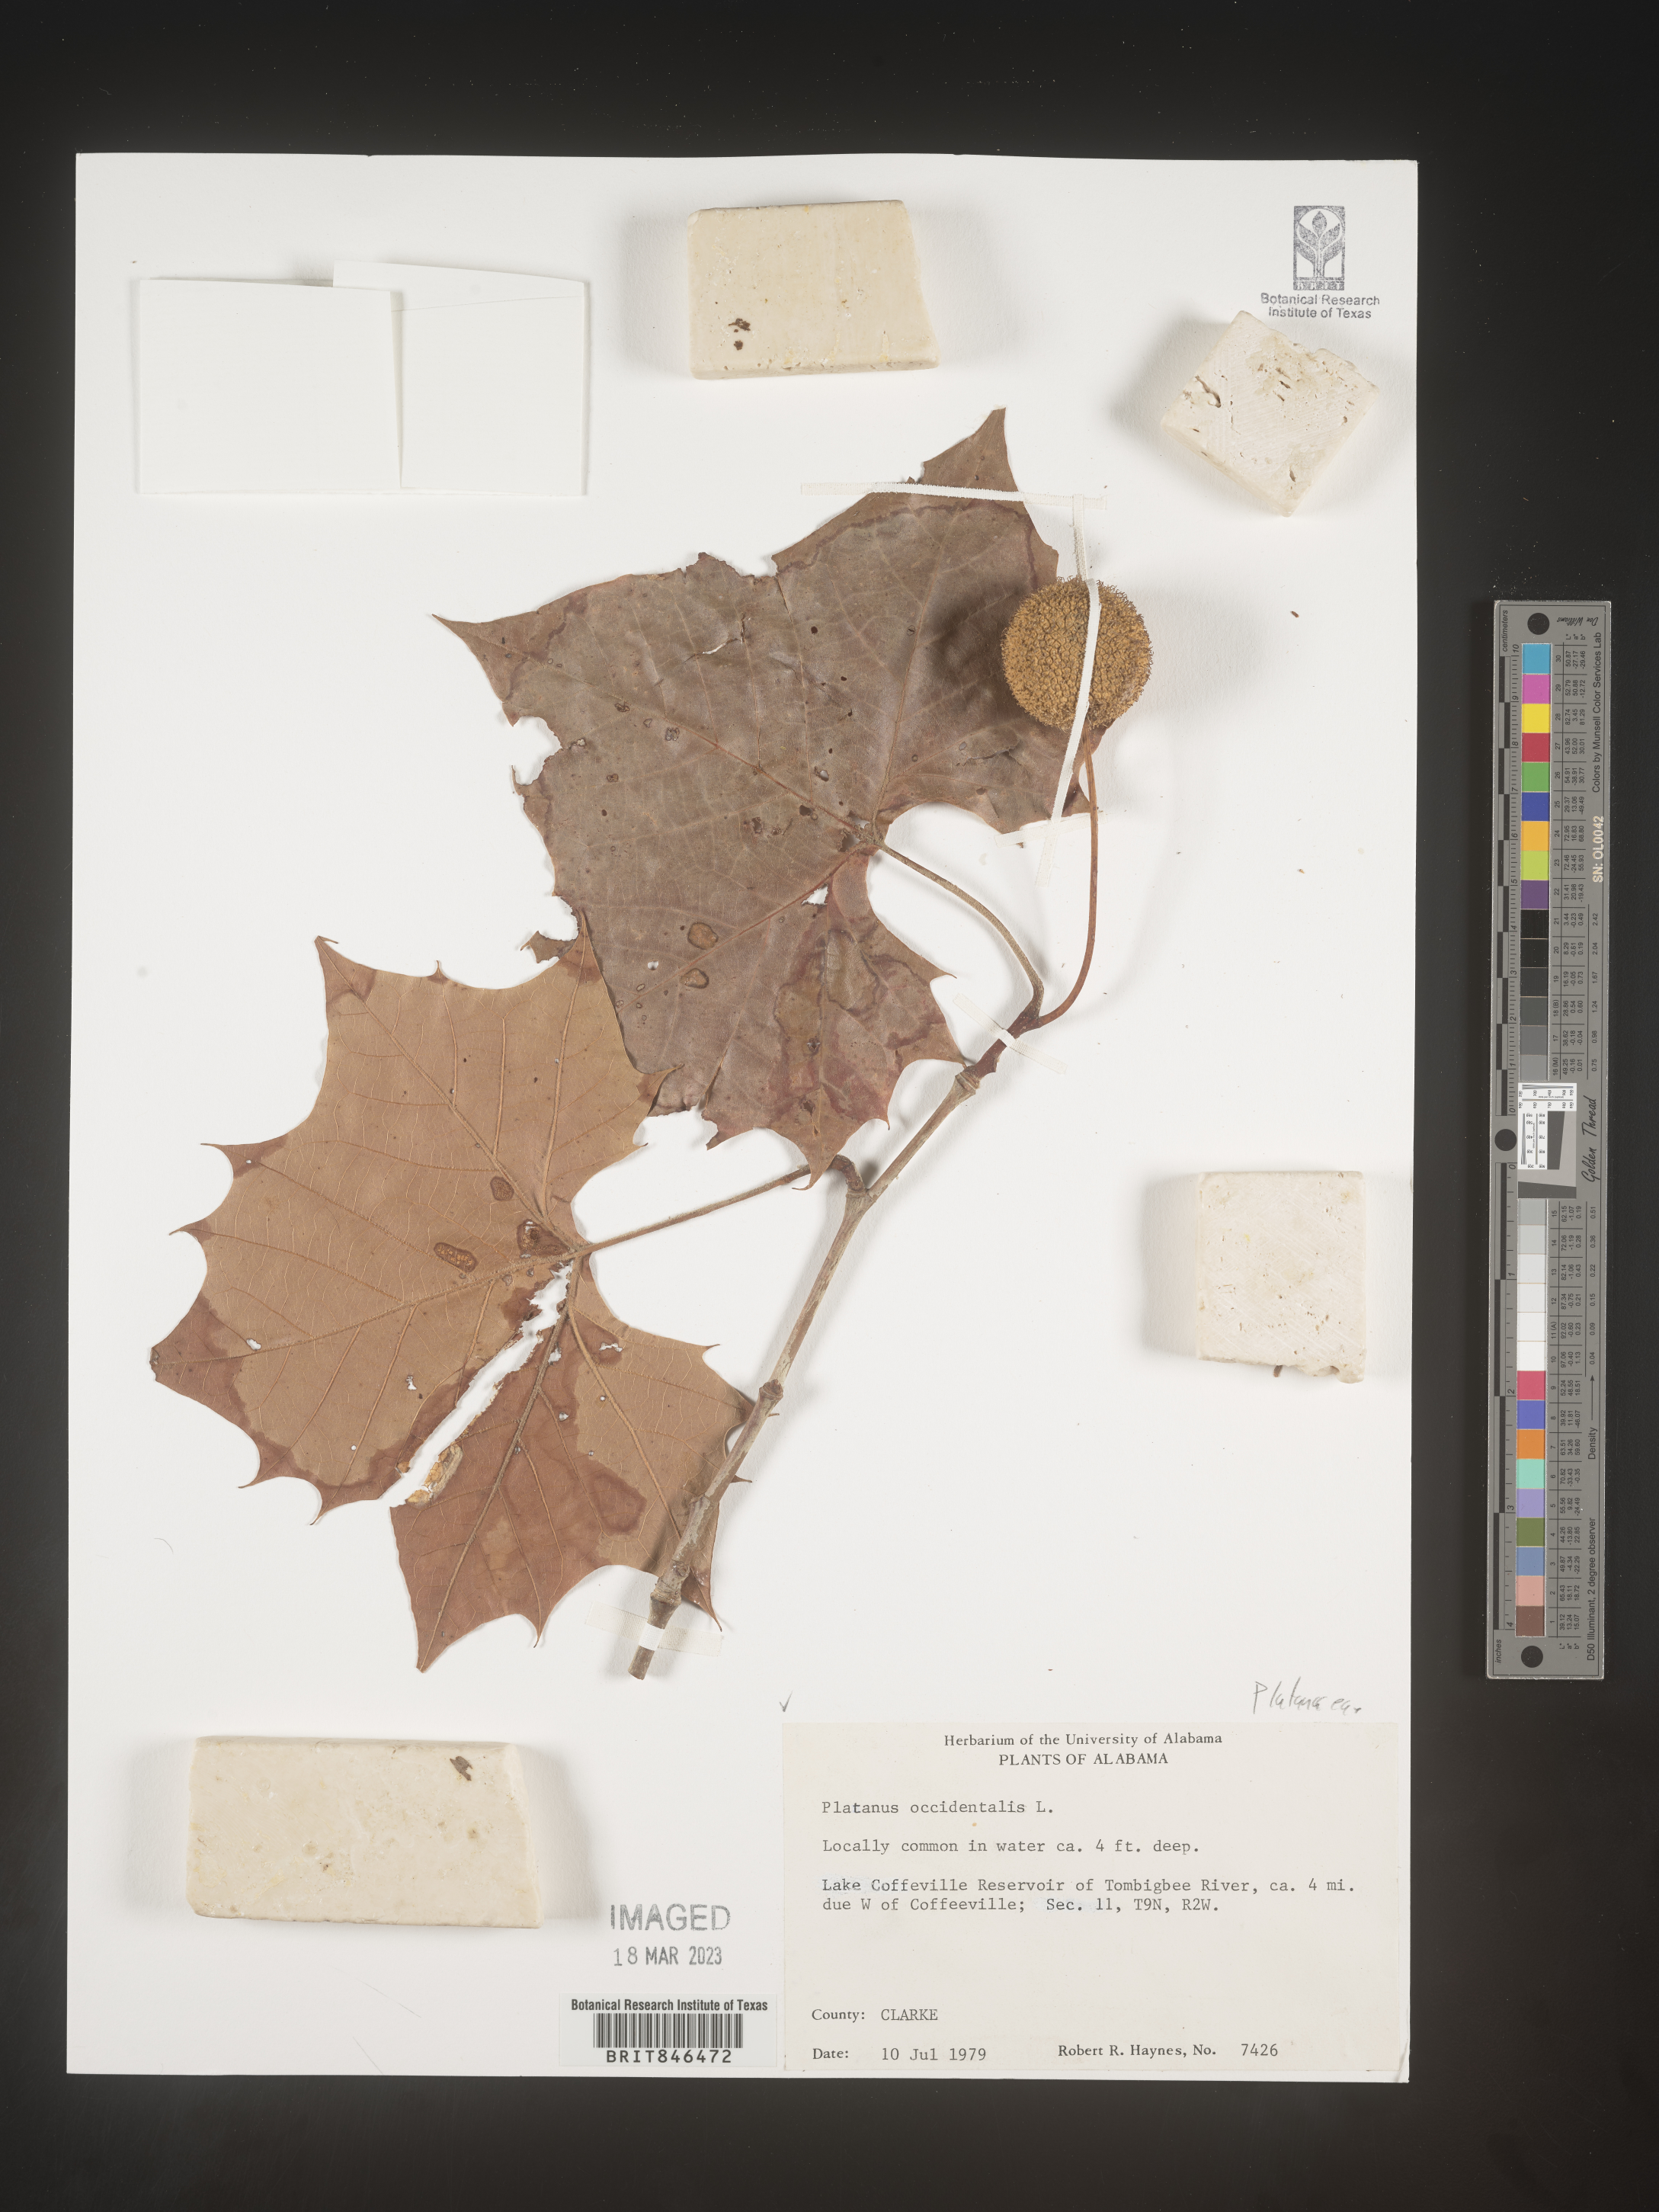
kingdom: Plantae
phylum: Tracheophyta
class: Magnoliopsida
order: Proteales
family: Platanaceae
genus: Platanus
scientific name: Platanus occidentalis
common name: American sycamore
